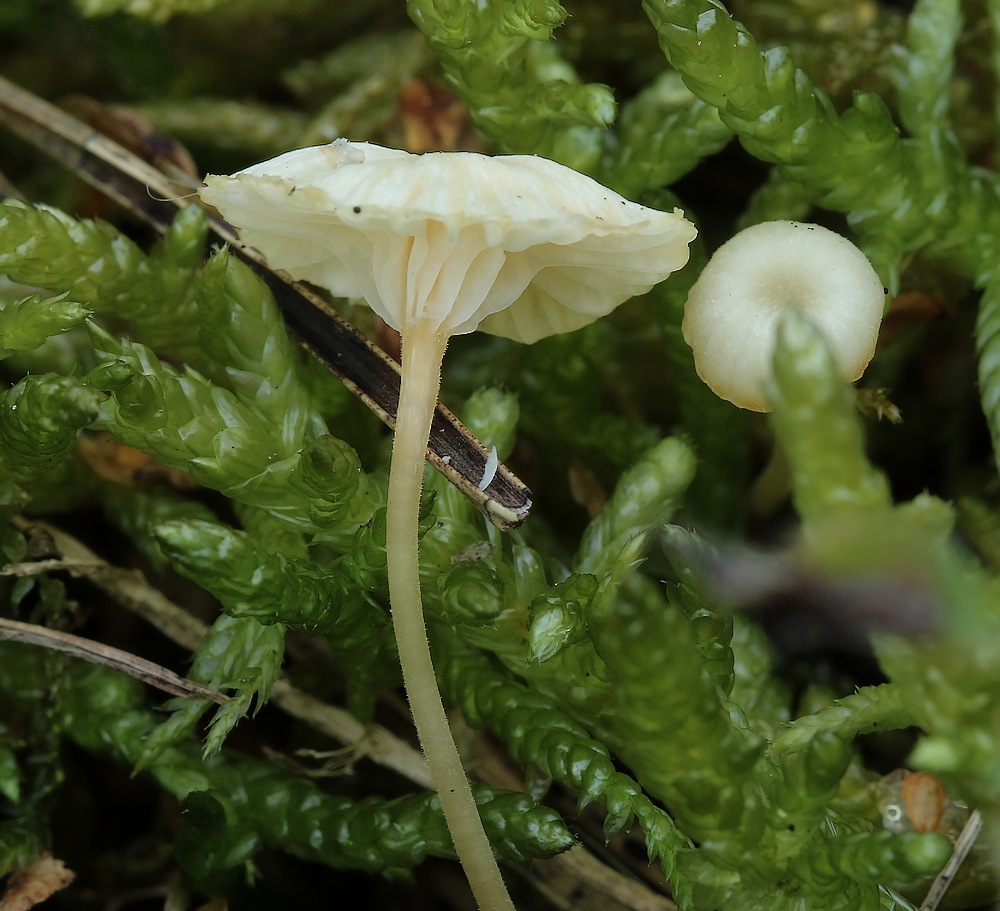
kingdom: Fungi
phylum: Basidiomycota
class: Agaricomycetes
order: Hymenochaetales
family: Rickenellaceae
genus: Rickenella
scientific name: Rickenella fibula
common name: orange mosnavlehat
